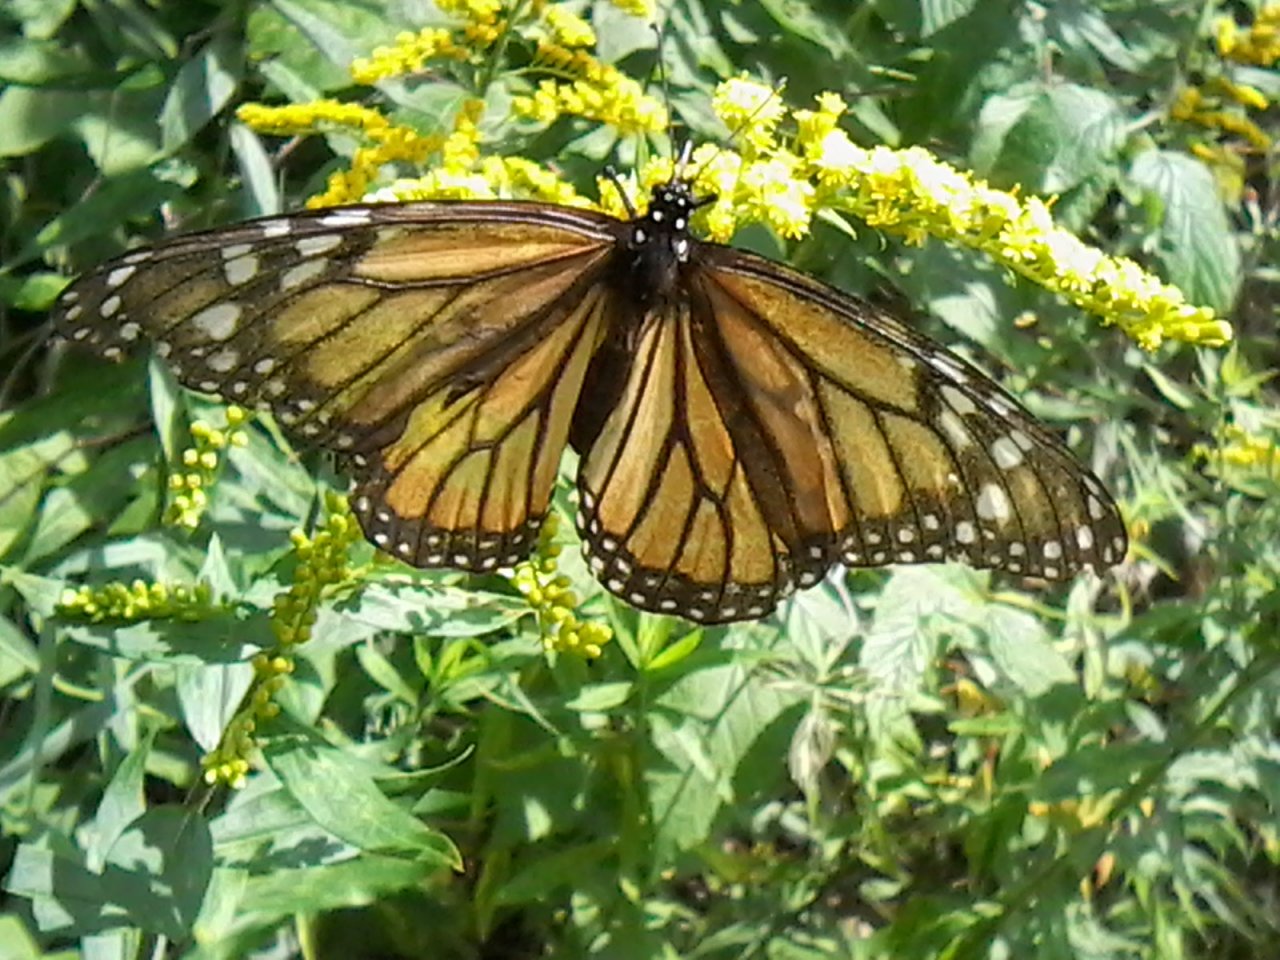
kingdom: Animalia
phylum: Arthropoda
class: Insecta
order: Lepidoptera
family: Nymphalidae
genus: Danaus
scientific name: Danaus plexippus
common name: Monarch
